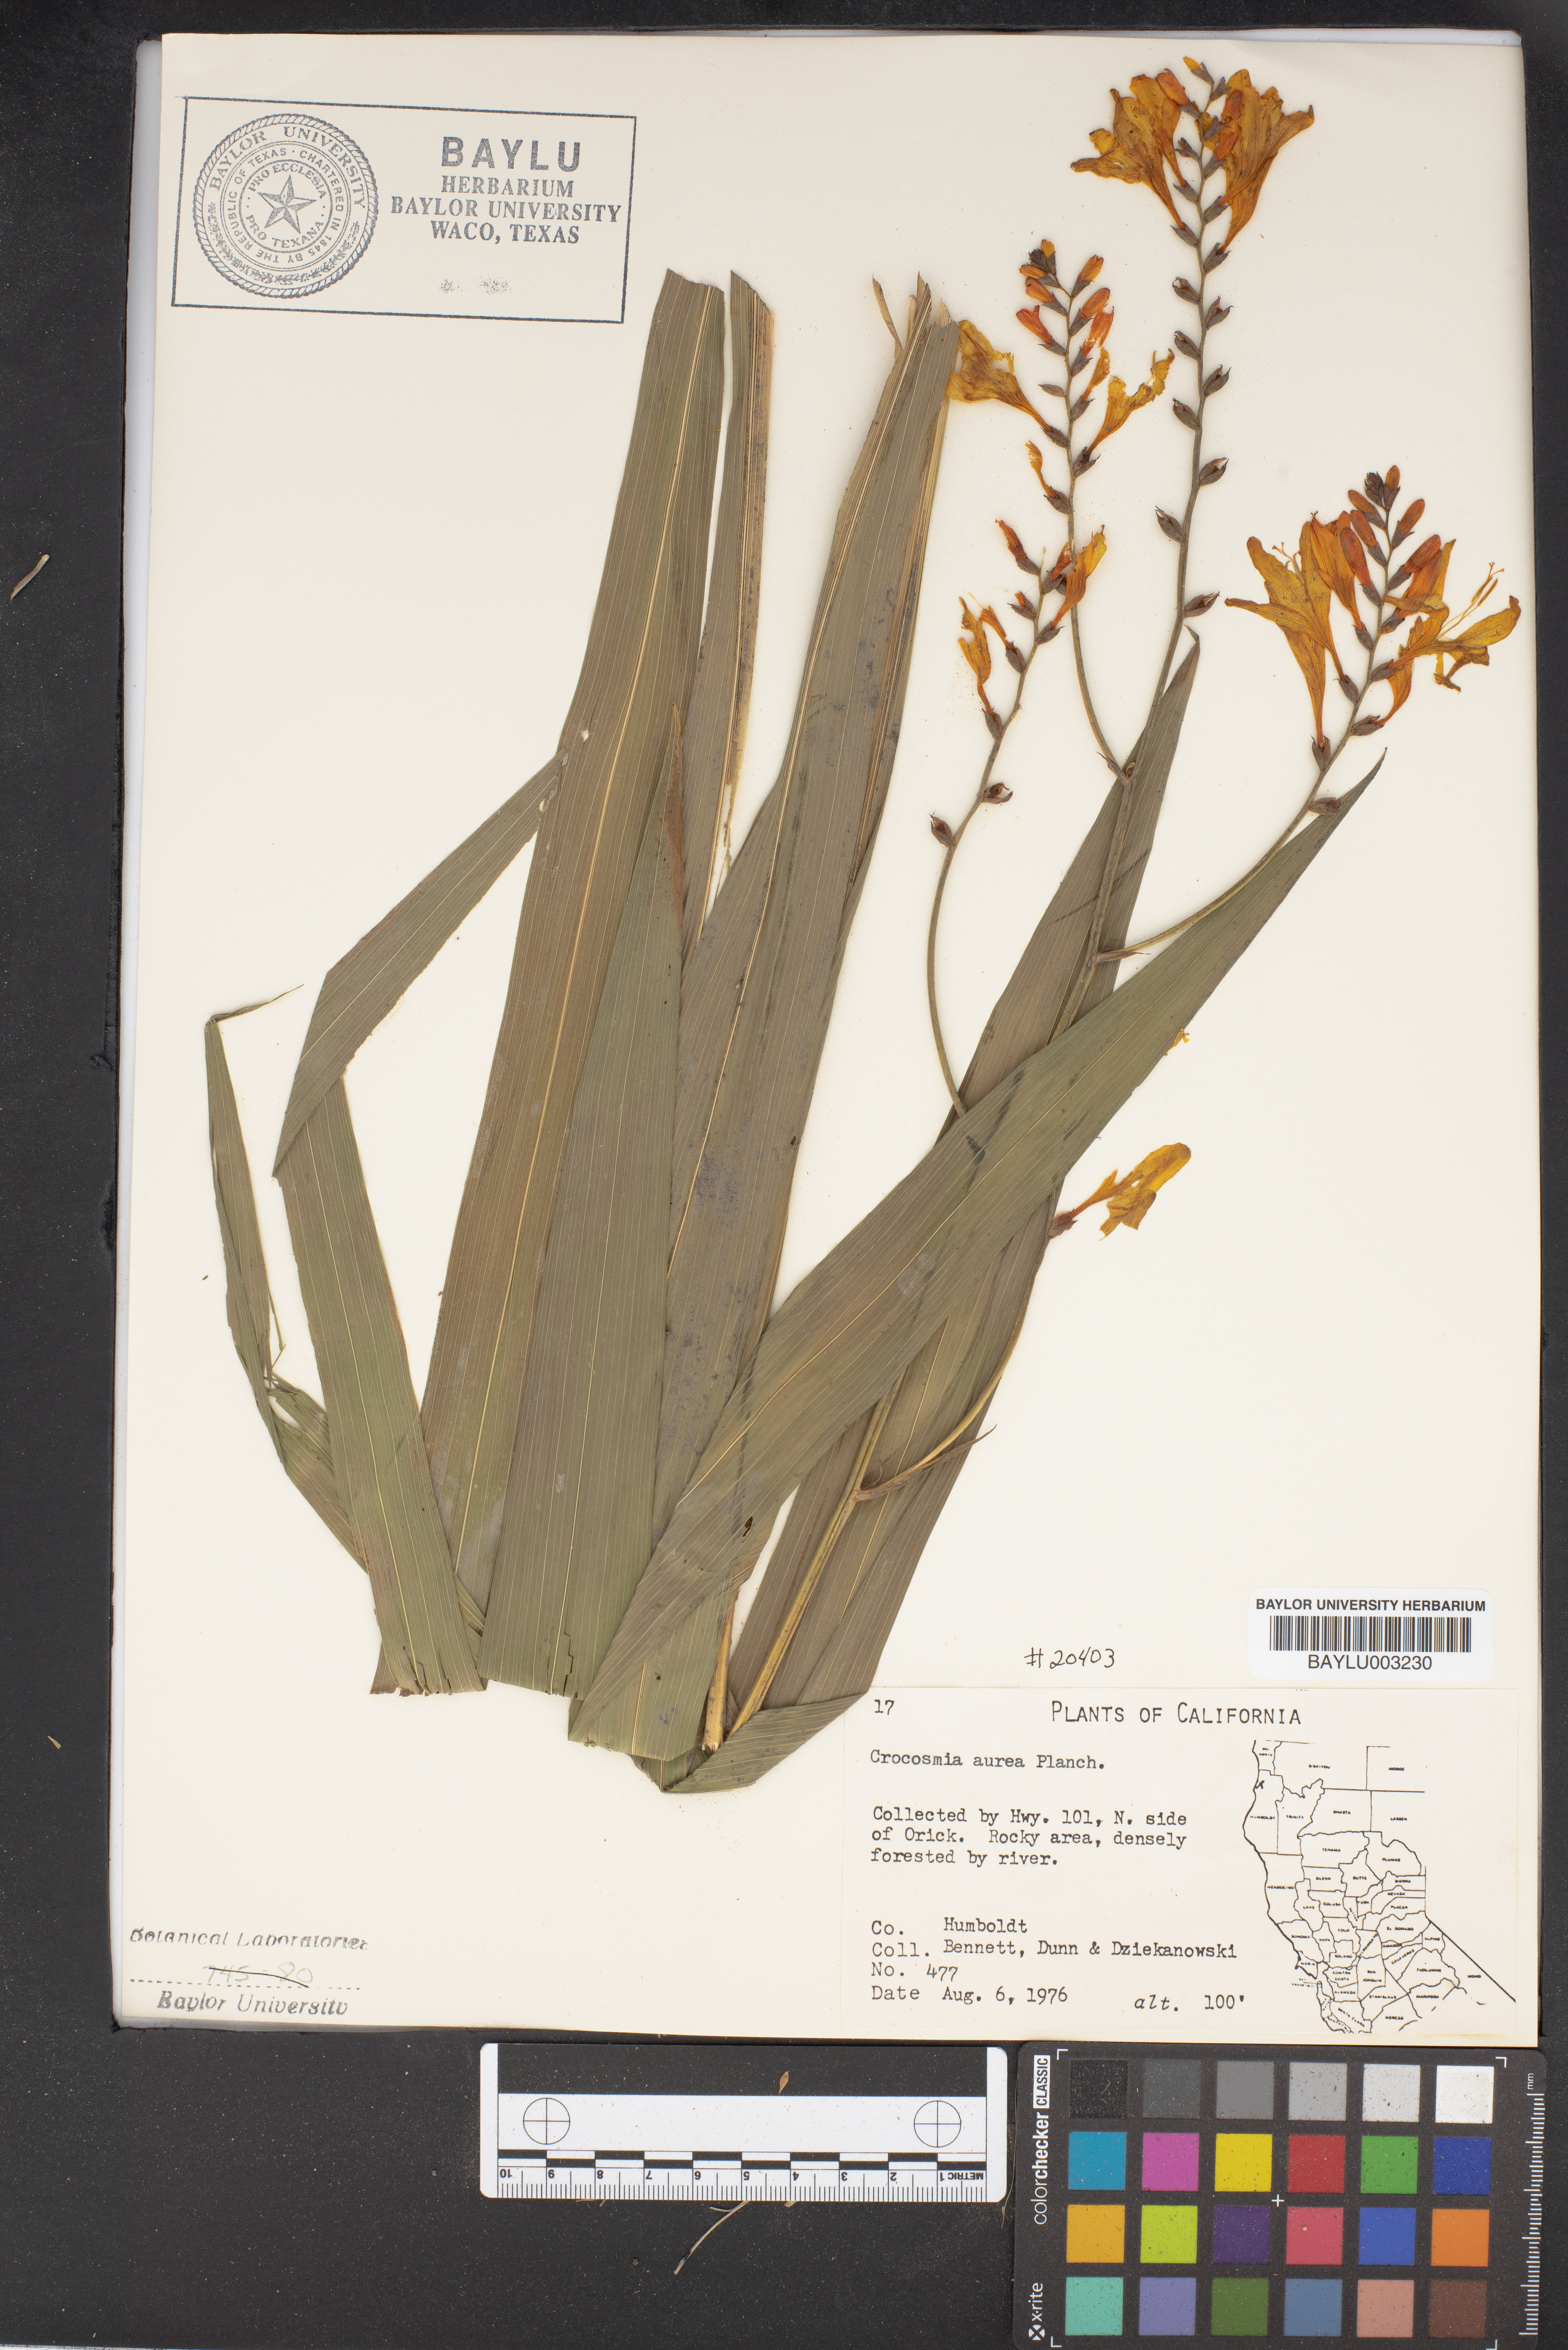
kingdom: Plantae
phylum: Tracheophyta
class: Liliopsida
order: Asparagales
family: Iridaceae
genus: Crocosmia
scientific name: Crocosmia aurea
